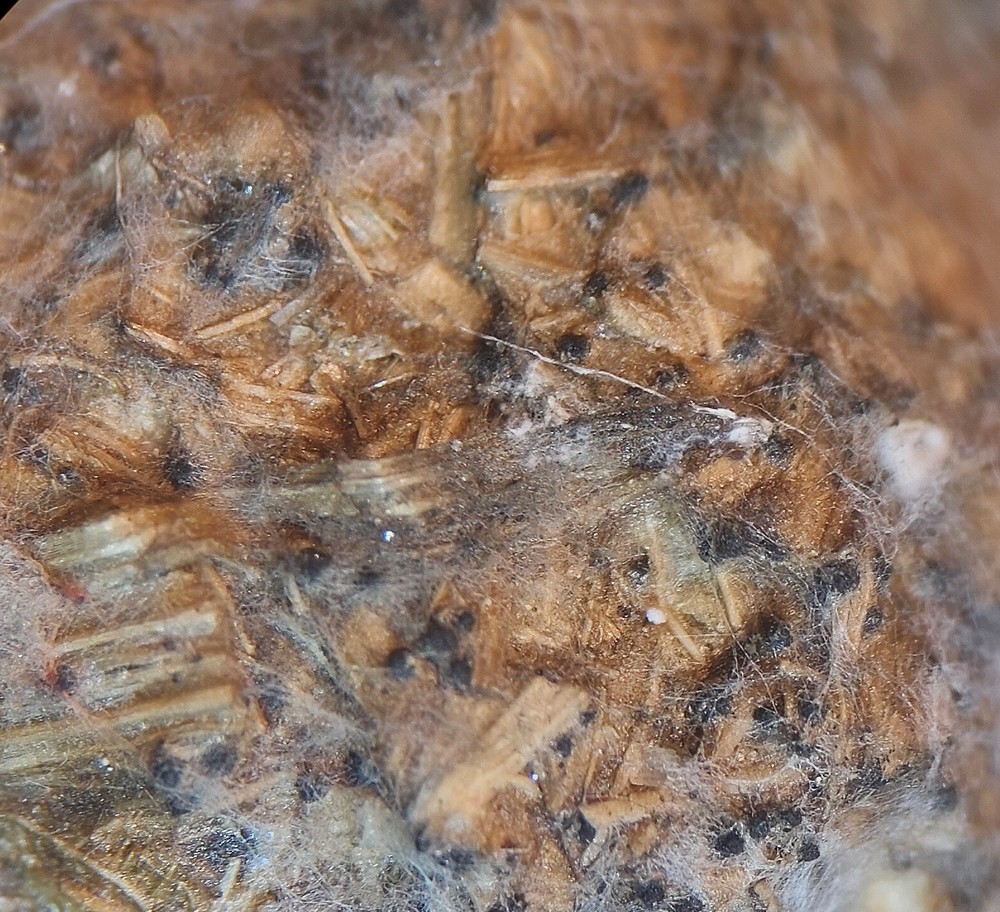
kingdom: Fungi
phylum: Ascomycota
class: Sordariomycetes
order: Sordariales
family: Sordariaceae
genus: Sordaria
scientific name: Sordaria fimicola
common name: gødnings-kernesvamp
